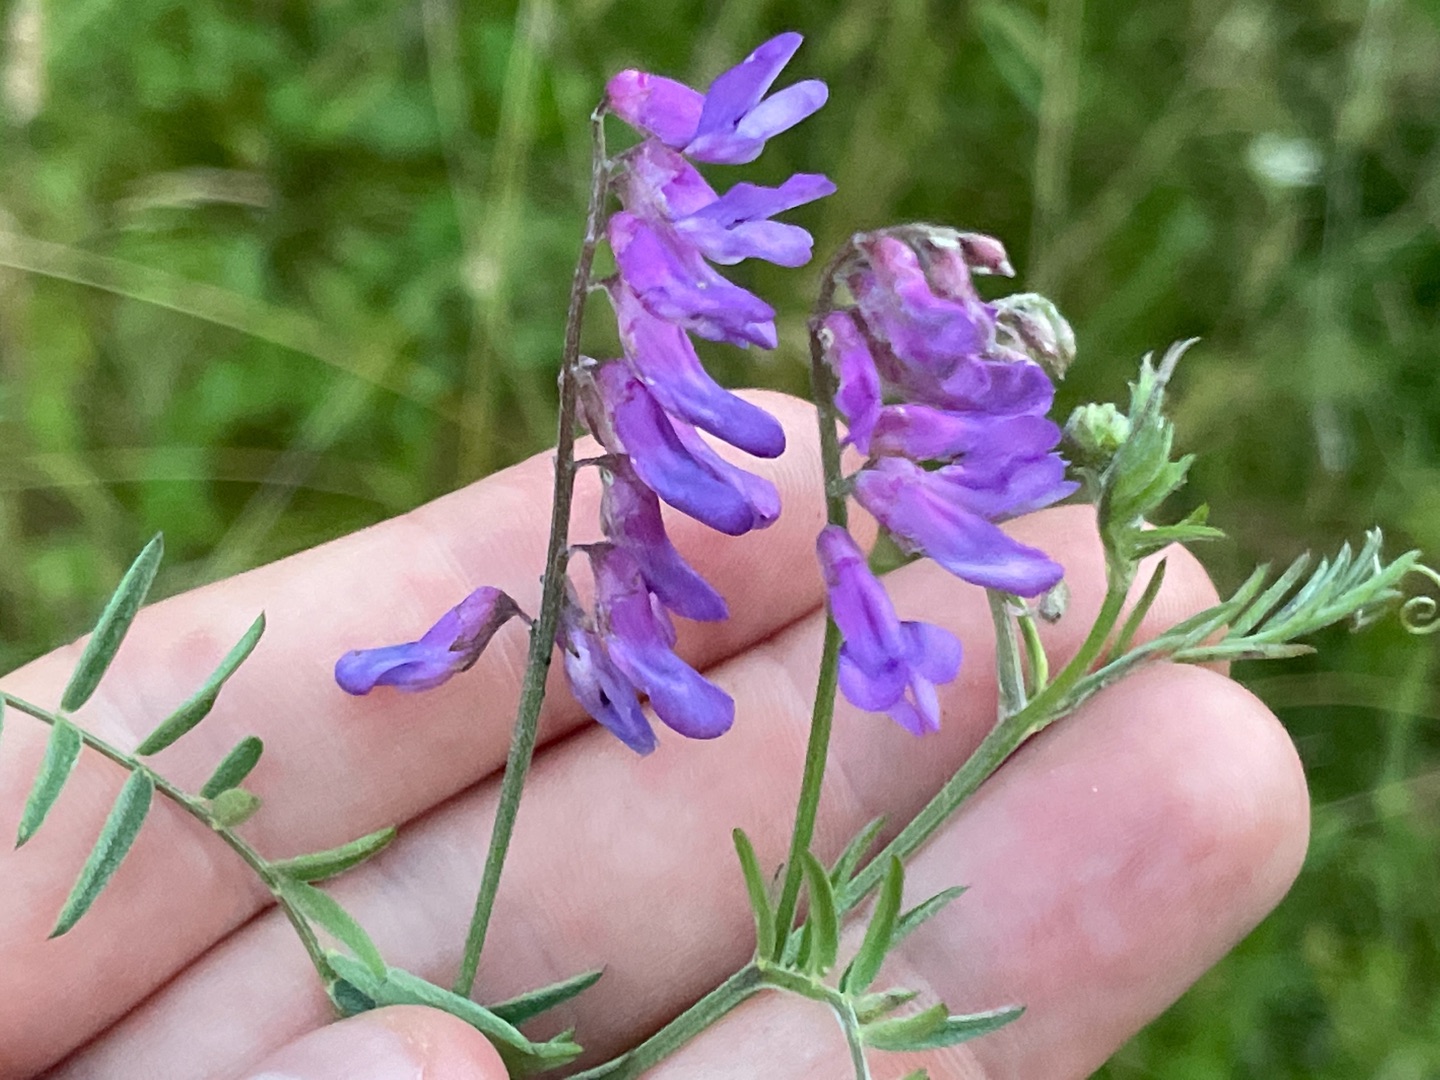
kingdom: Plantae
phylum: Tracheophyta
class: Magnoliopsida
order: Fabales
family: Fabaceae
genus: Vicia
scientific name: Vicia cracca
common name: Muse-vikke
